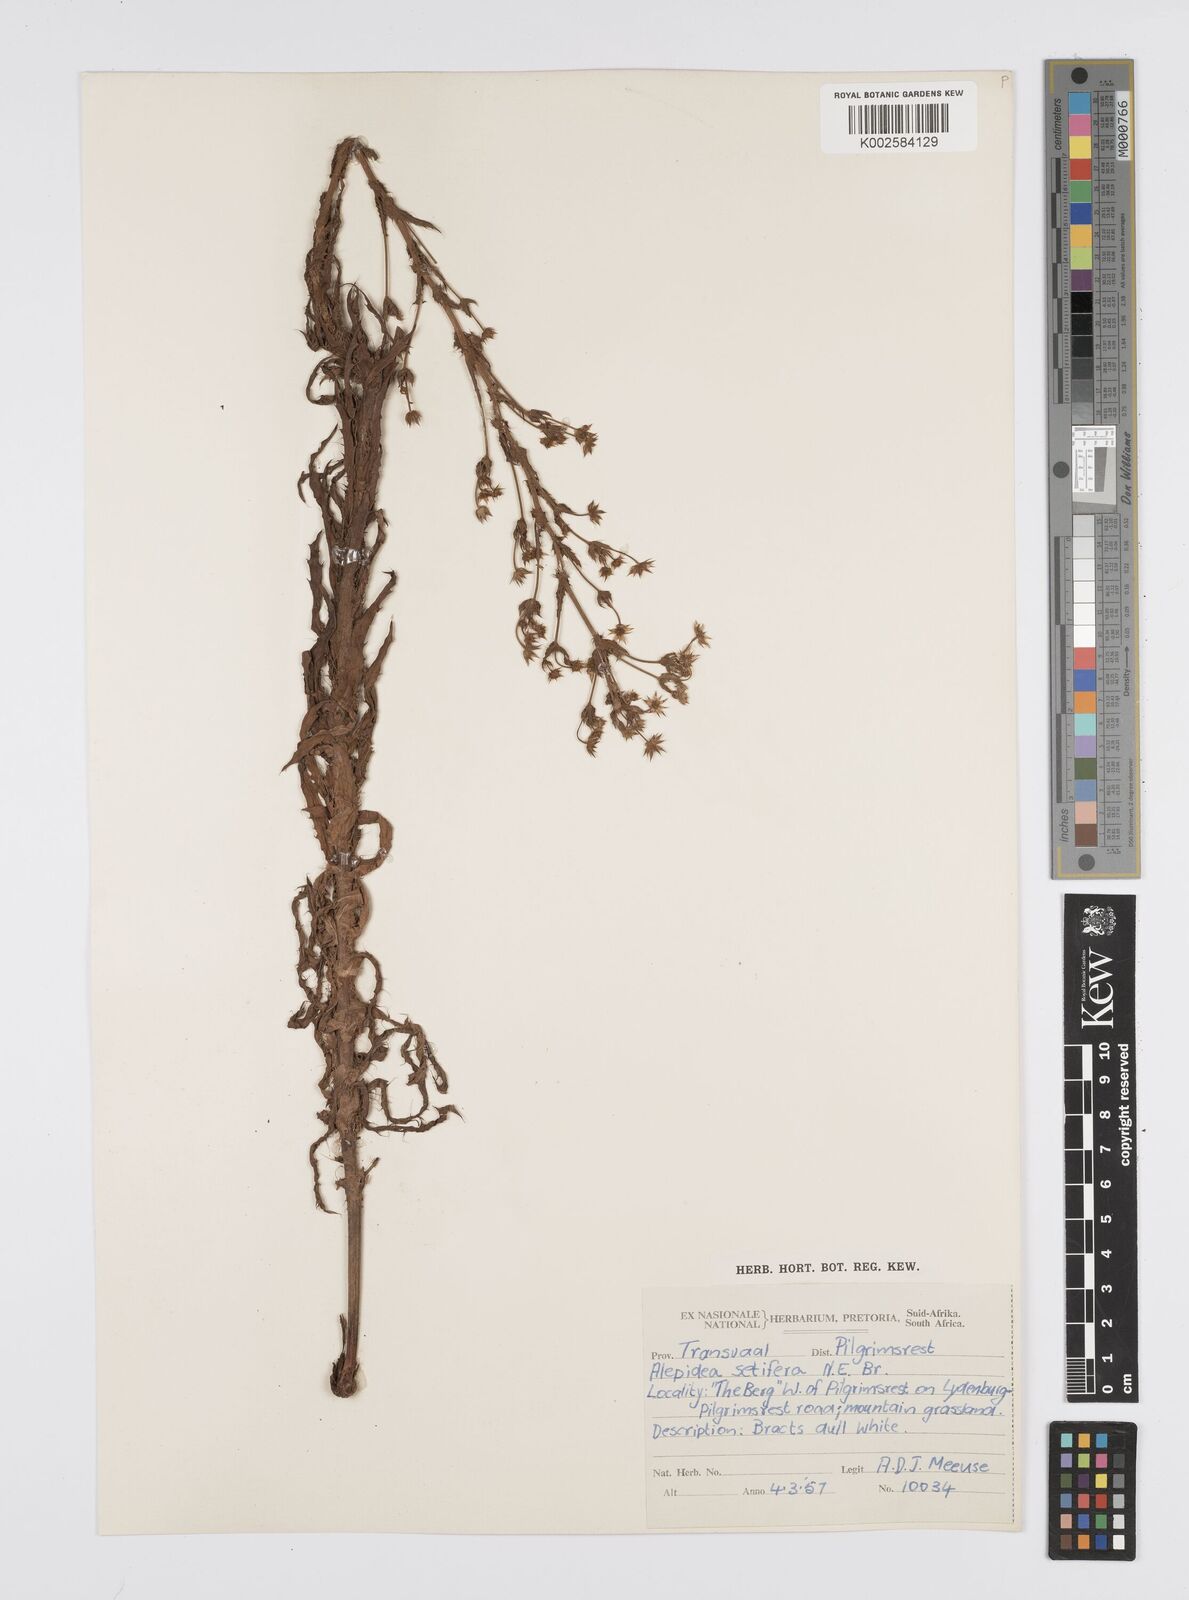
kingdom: Plantae
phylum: Tracheophyta
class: Magnoliopsida
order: Apiales
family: Apiaceae
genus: Alepidea
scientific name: Alepidea setifera
